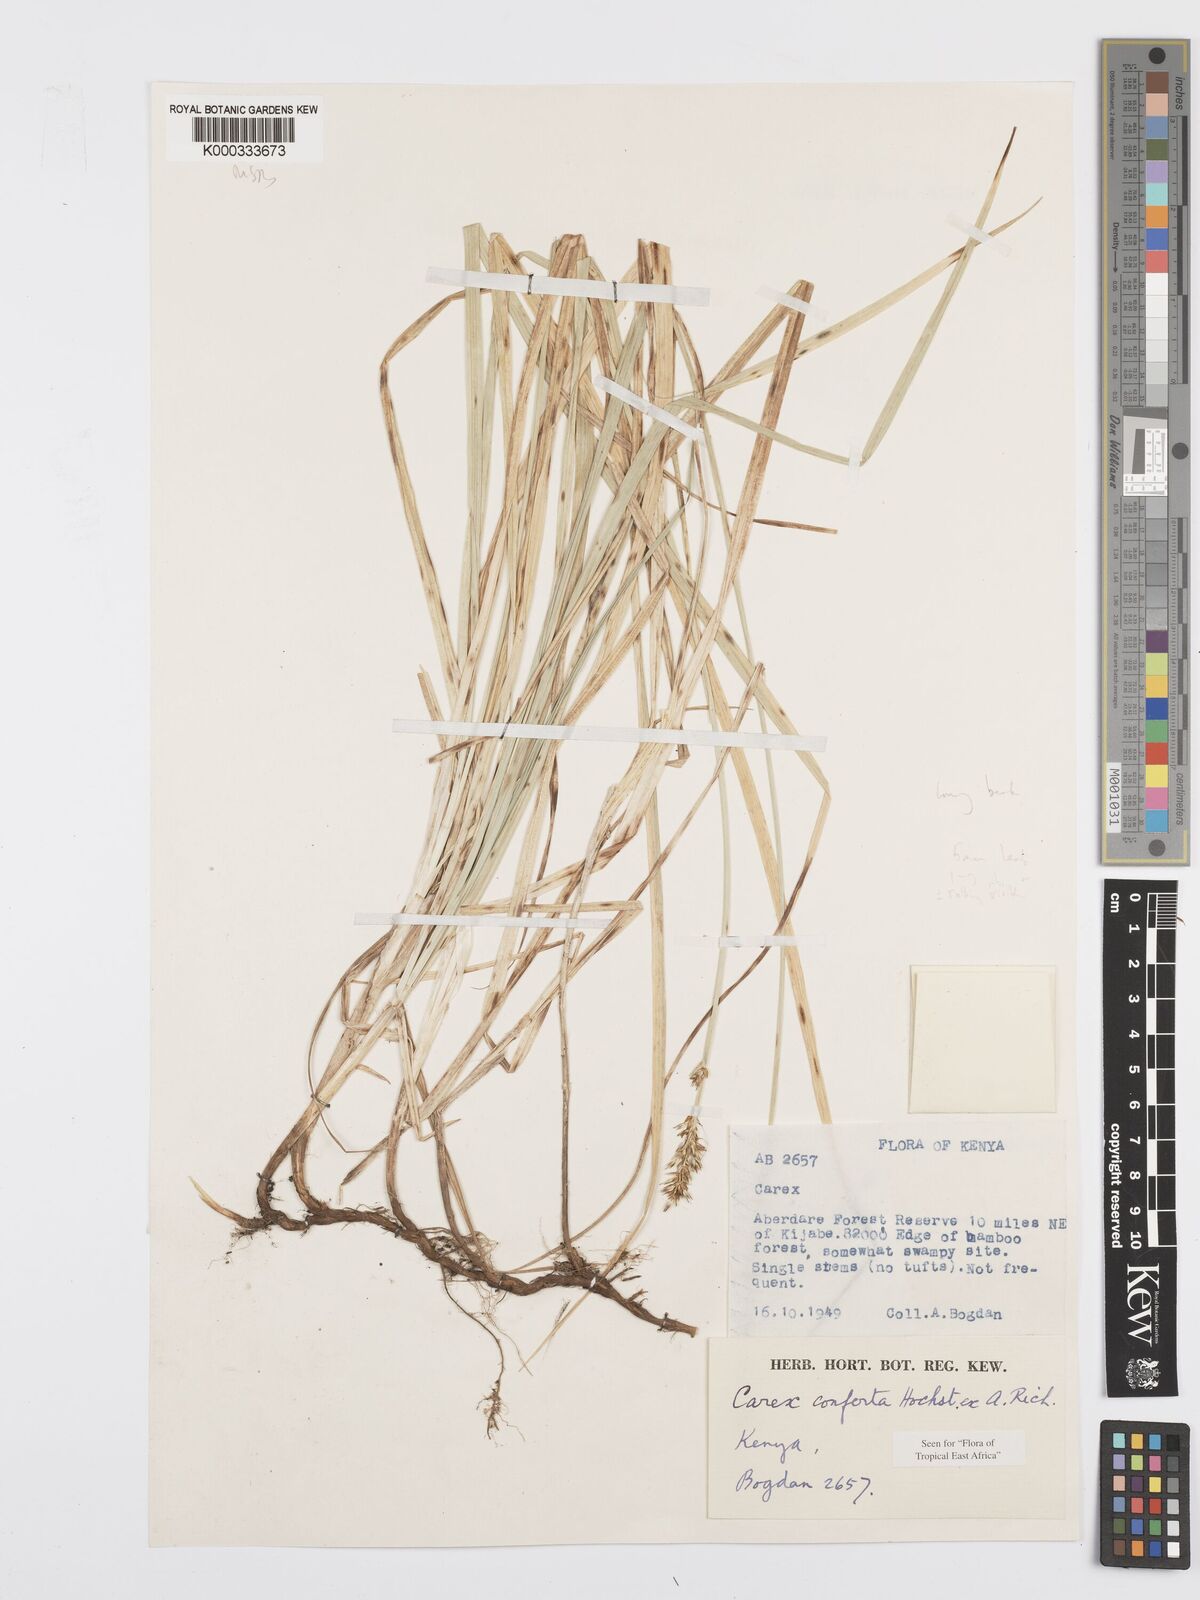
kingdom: Plantae
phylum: Tracheophyta
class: Liliopsida
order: Poales
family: Cyperaceae
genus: Carex
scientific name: Carex conferta
